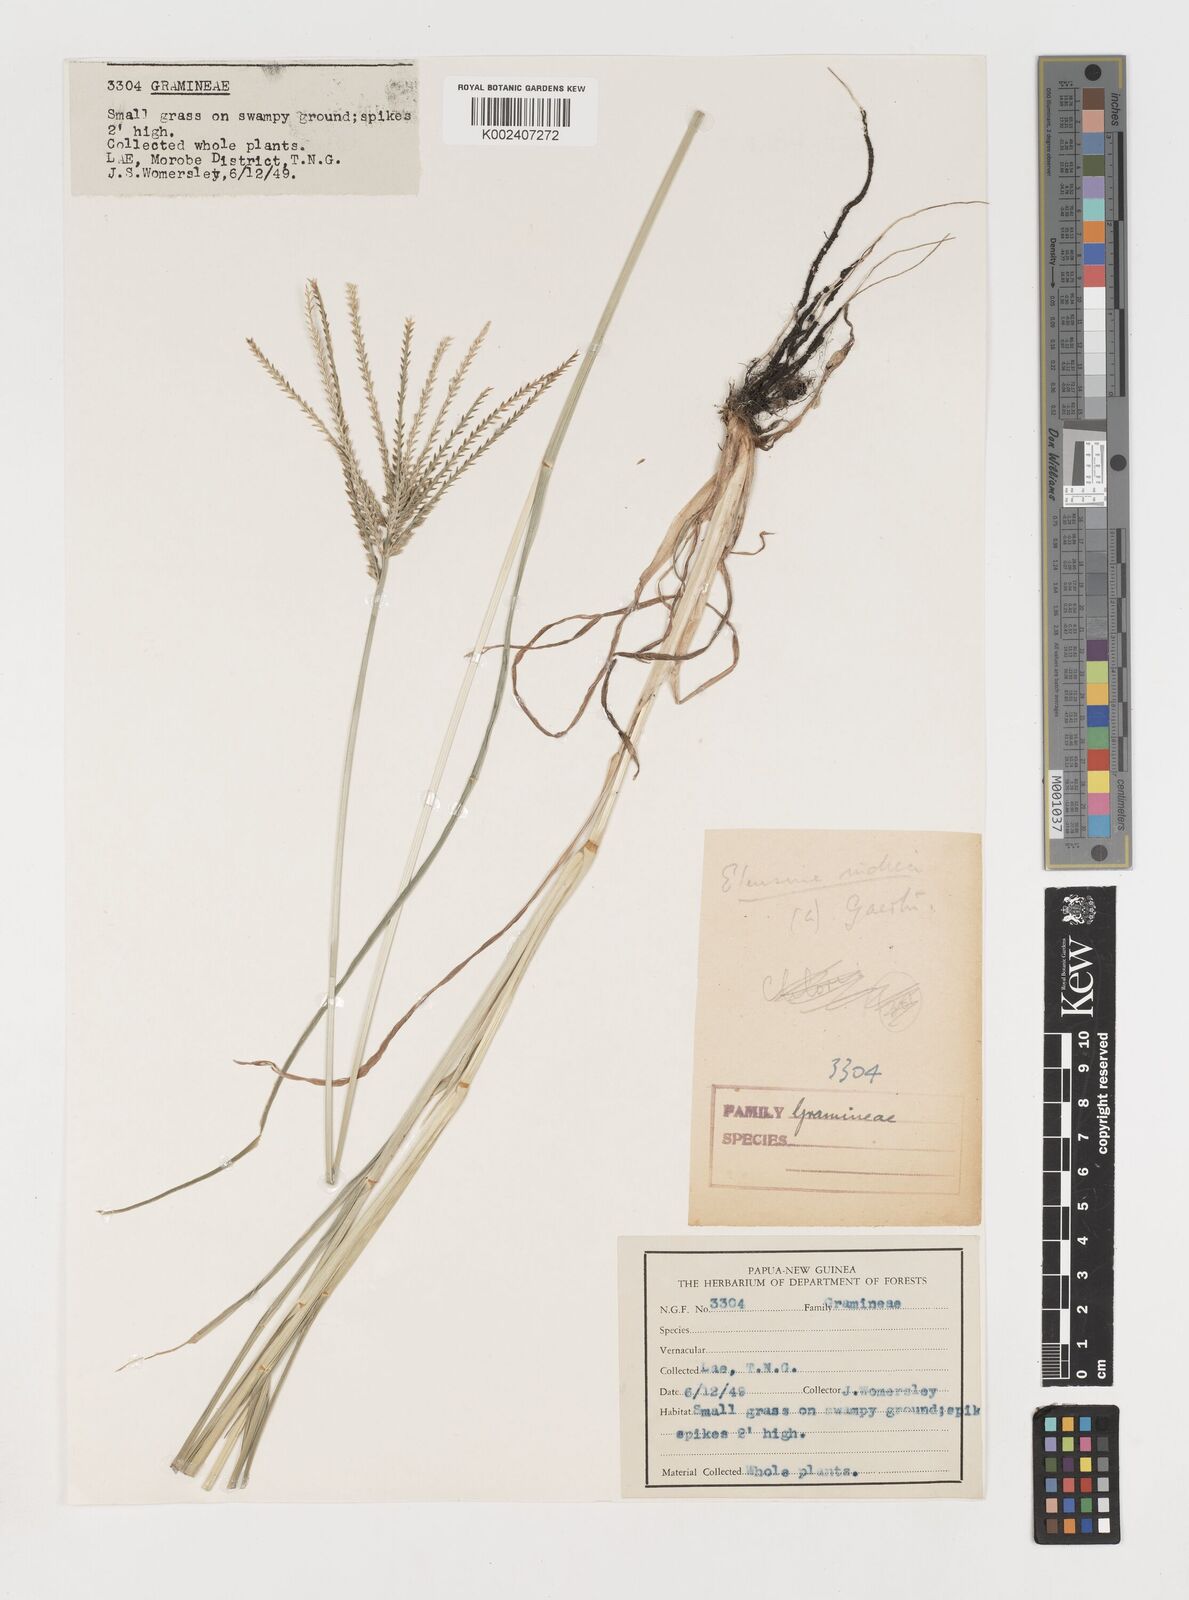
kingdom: Plantae
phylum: Tracheophyta
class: Liliopsida
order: Poales
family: Poaceae
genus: Eleusine
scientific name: Eleusine indica
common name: Yard-grass
